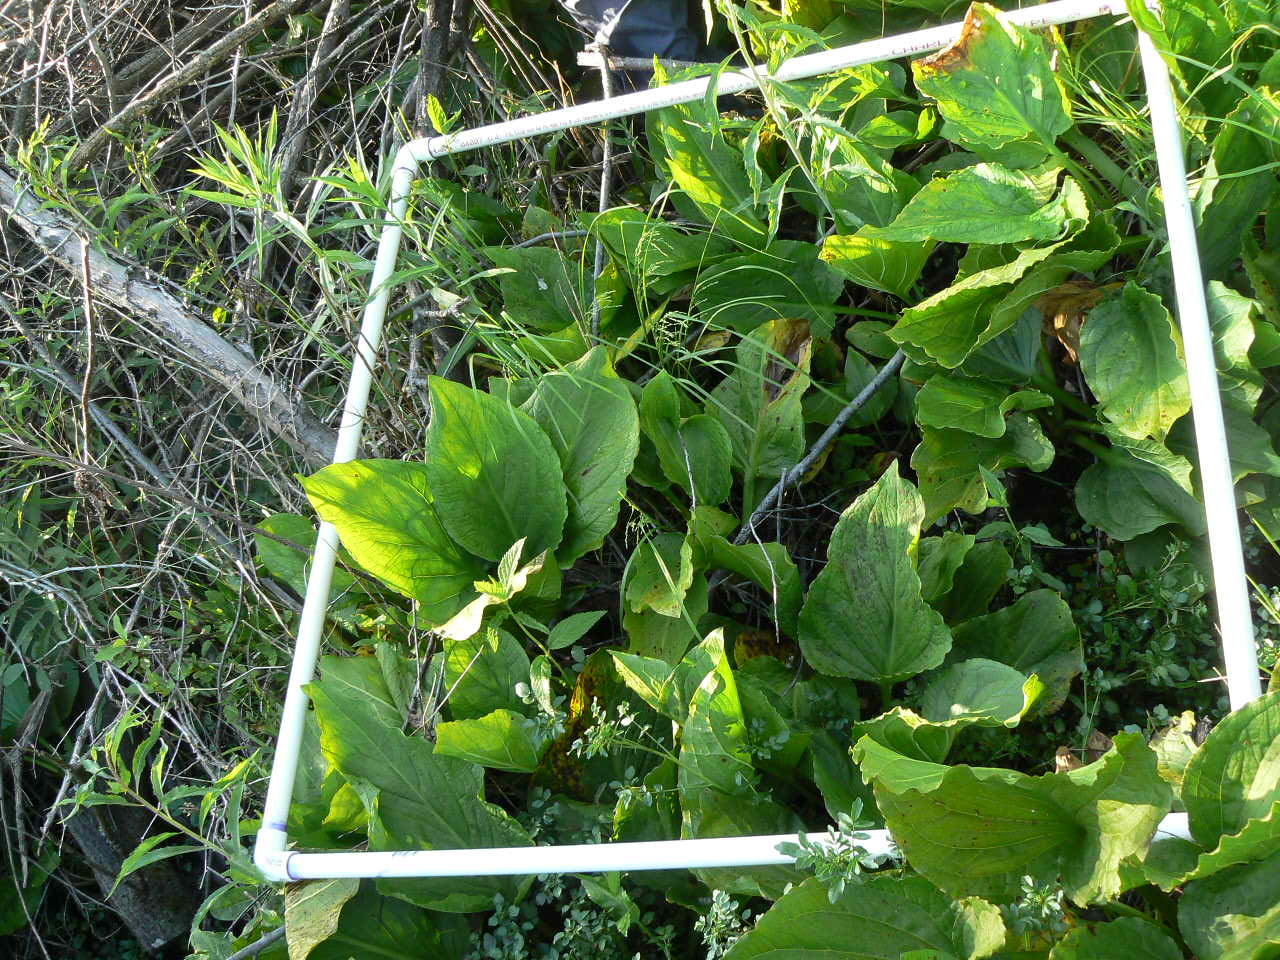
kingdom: Plantae
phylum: Tracheophyta
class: Magnoliopsida
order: Lamiales
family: Lamiaceae
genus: Stachys
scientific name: Stachys hispida
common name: Hispid hedge-nettle
